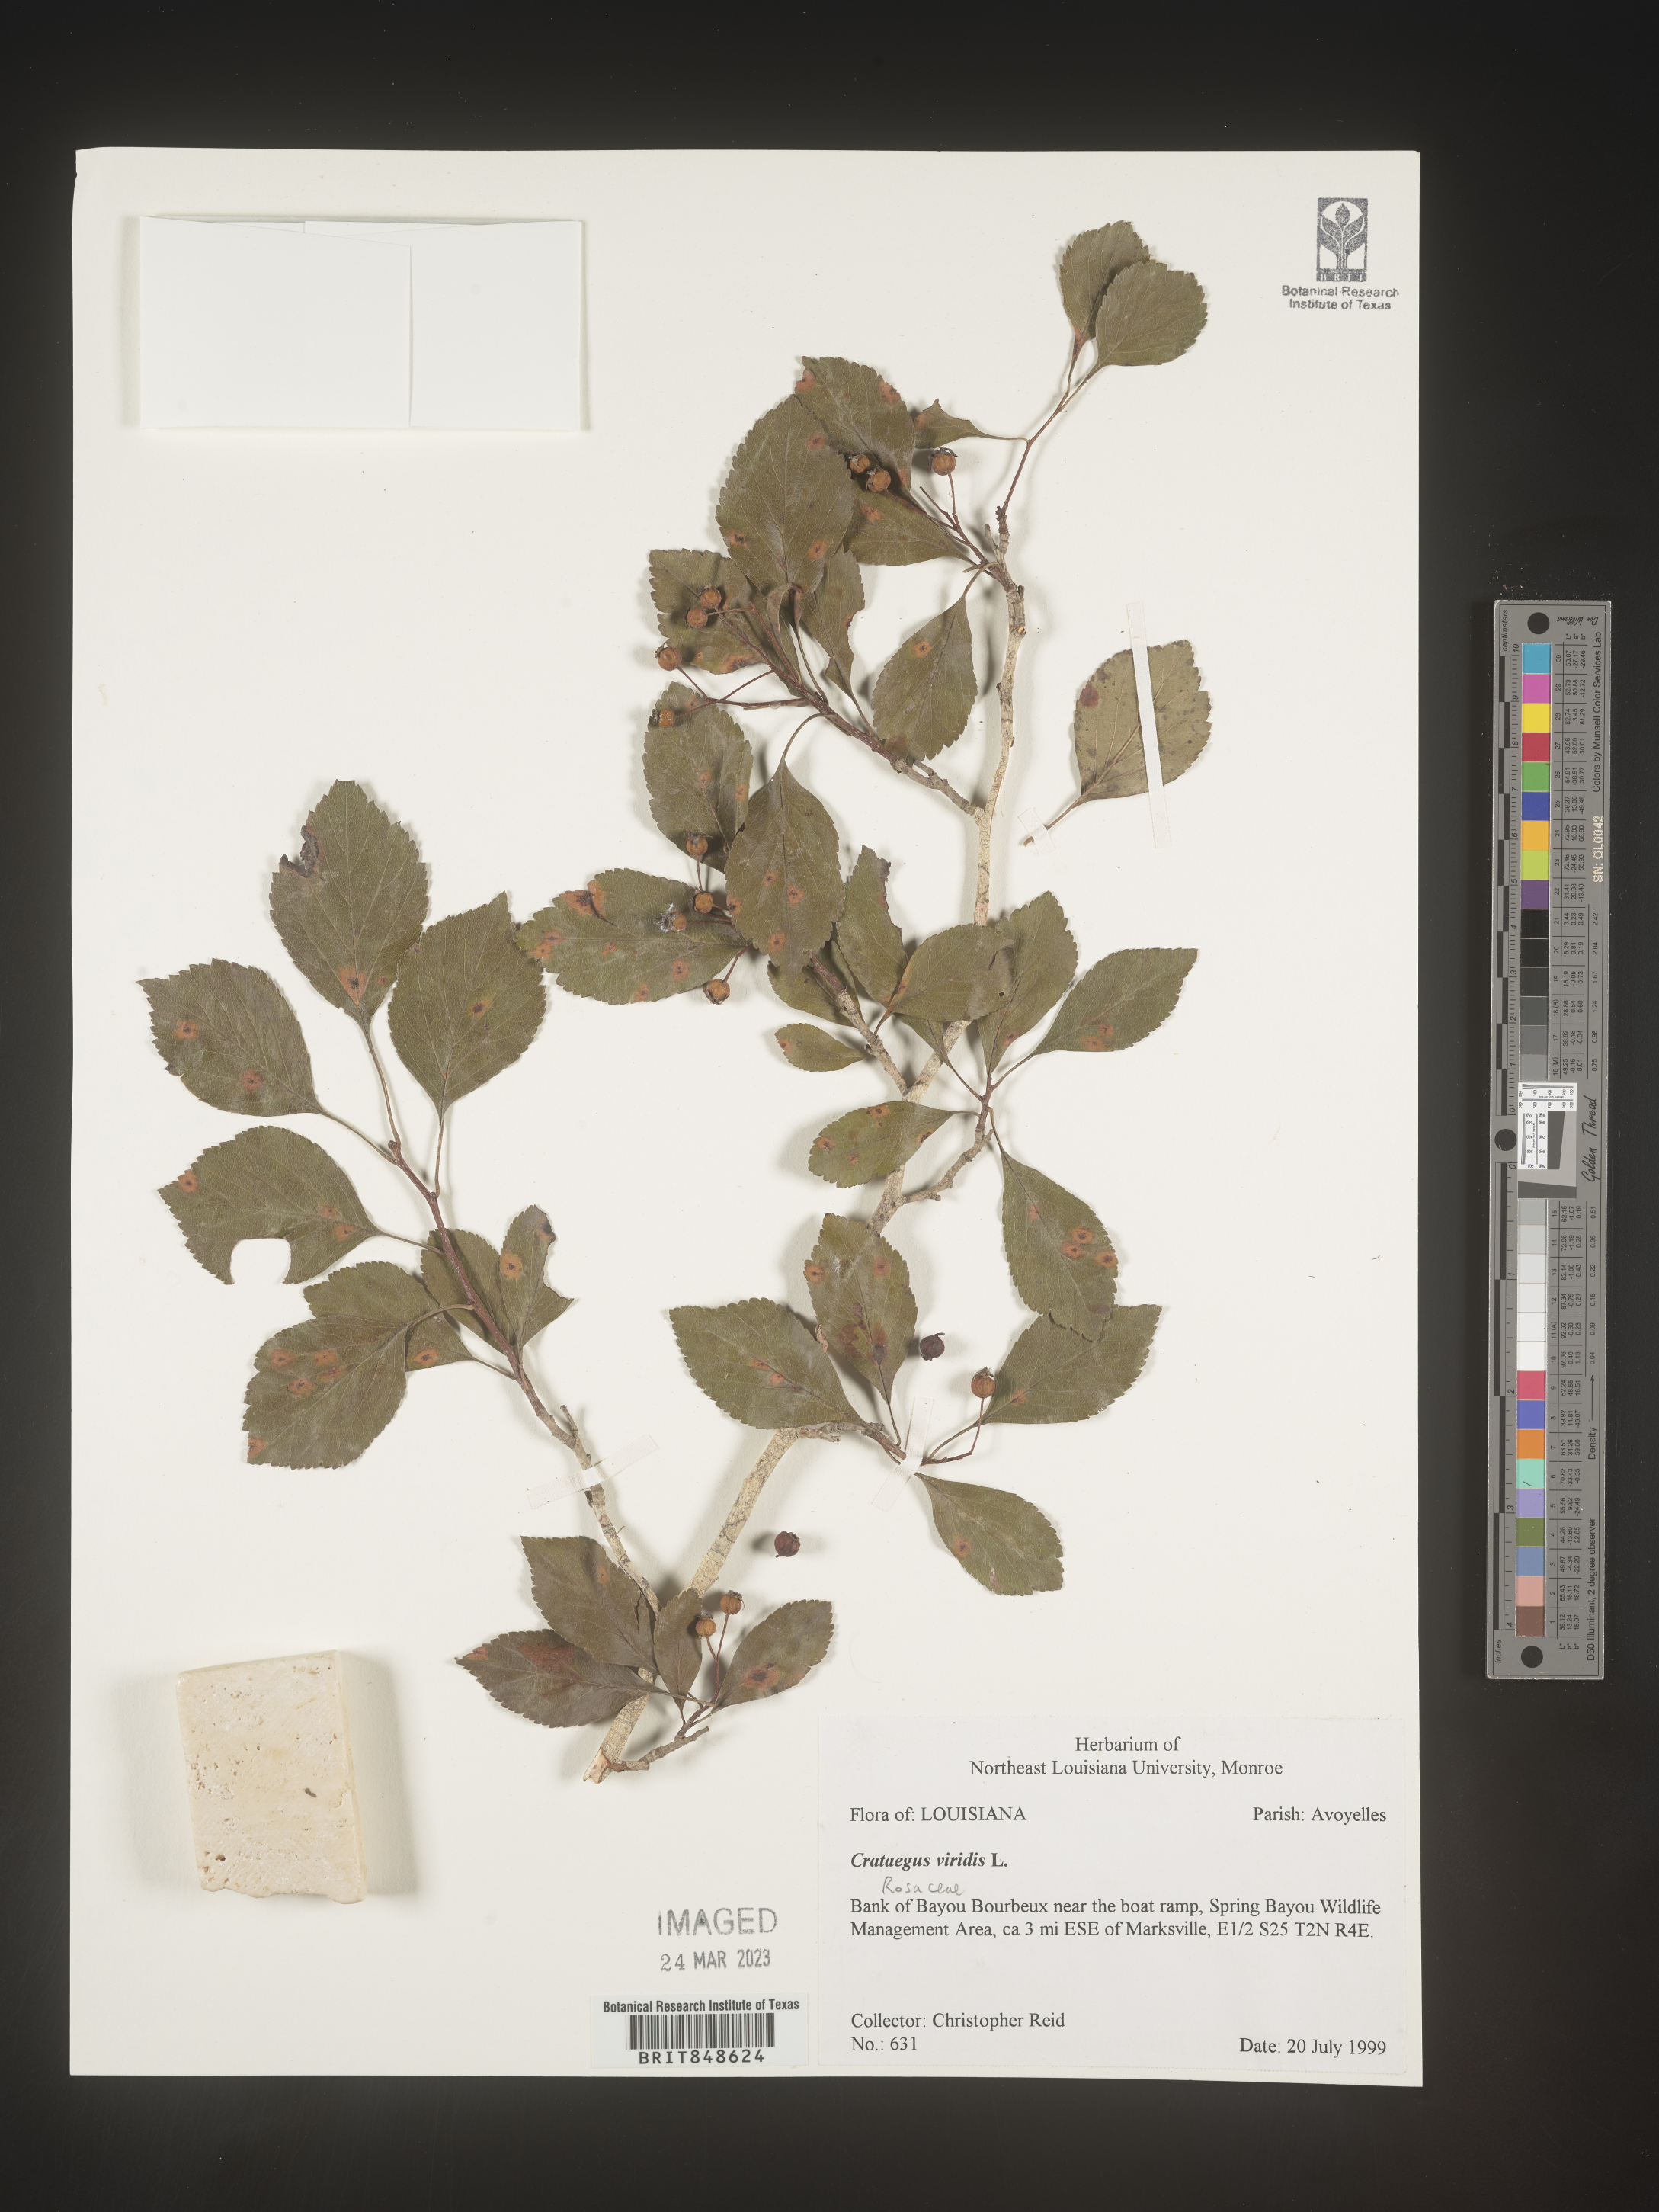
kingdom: Plantae
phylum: Tracheophyta
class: Magnoliopsida
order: Rosales
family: Rosaceae
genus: Crataegus
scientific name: Crataegus viridis
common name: Southernthorn
